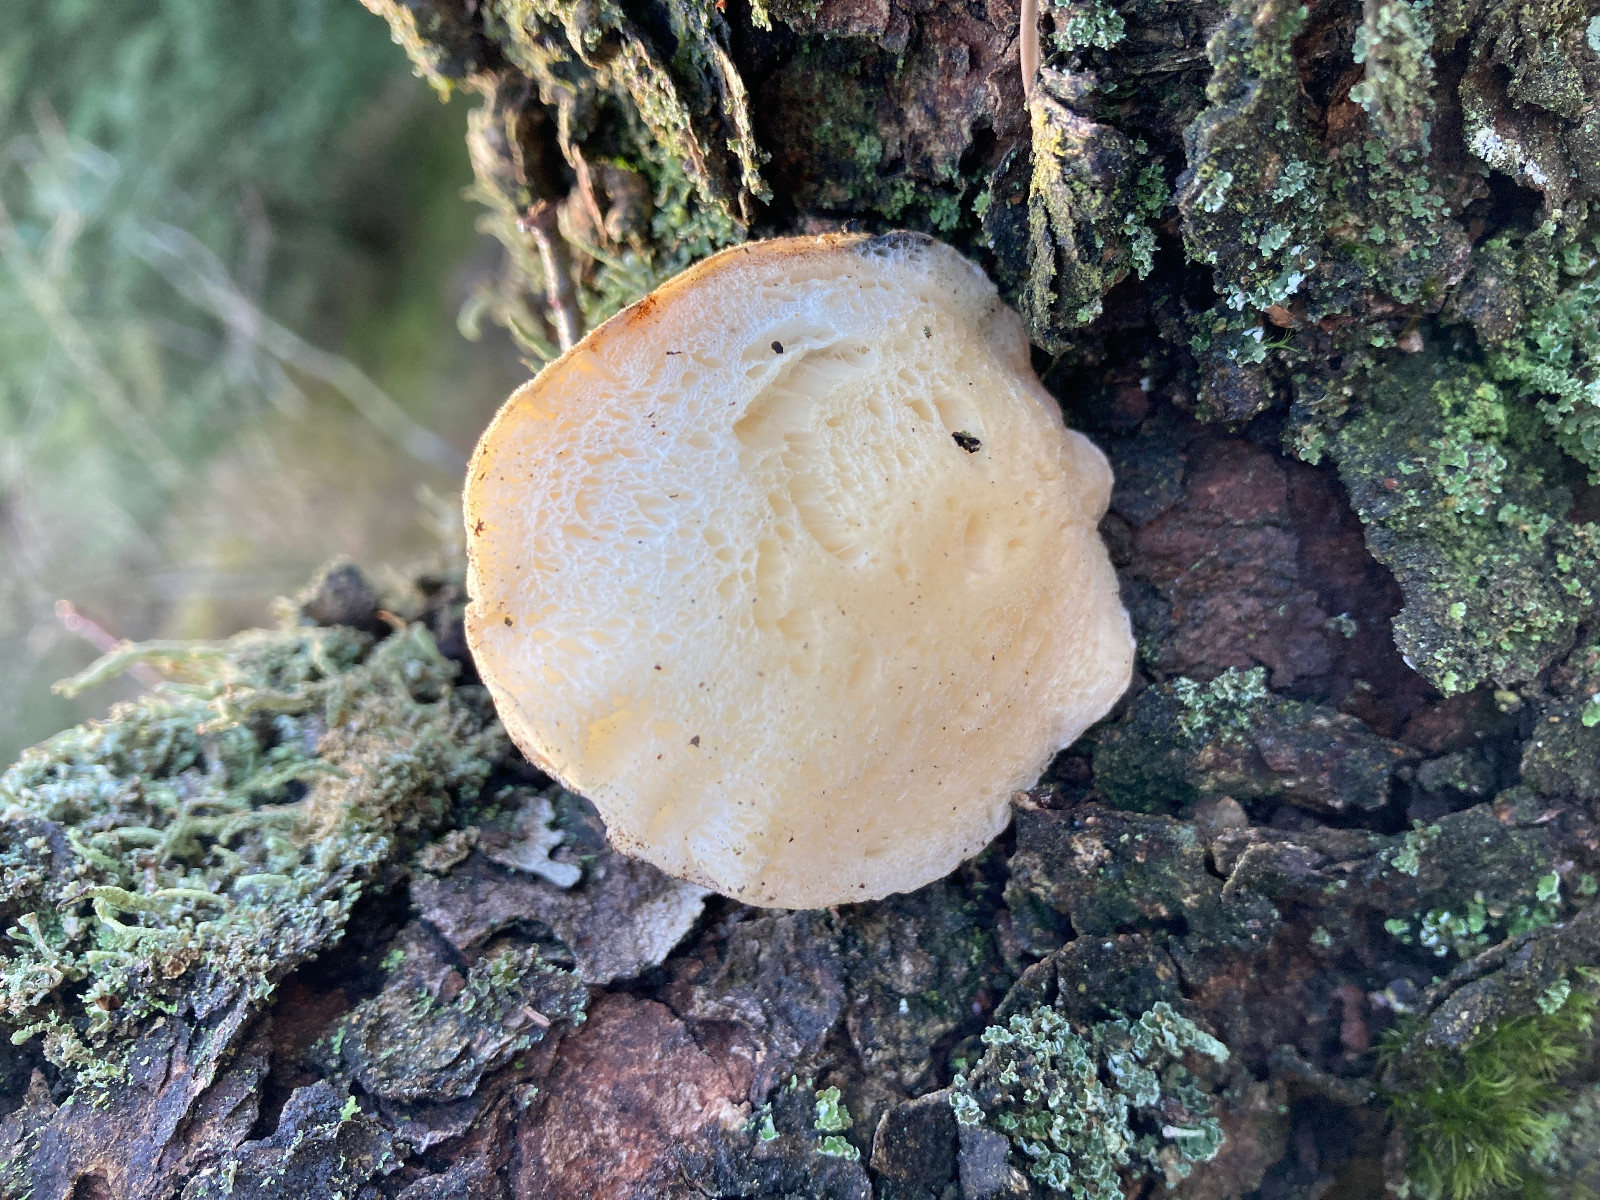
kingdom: Fungi
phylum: Basidiomycota
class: Agaricomycetes
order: Polyporales
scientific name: Polyporales
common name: poresvampordenen
